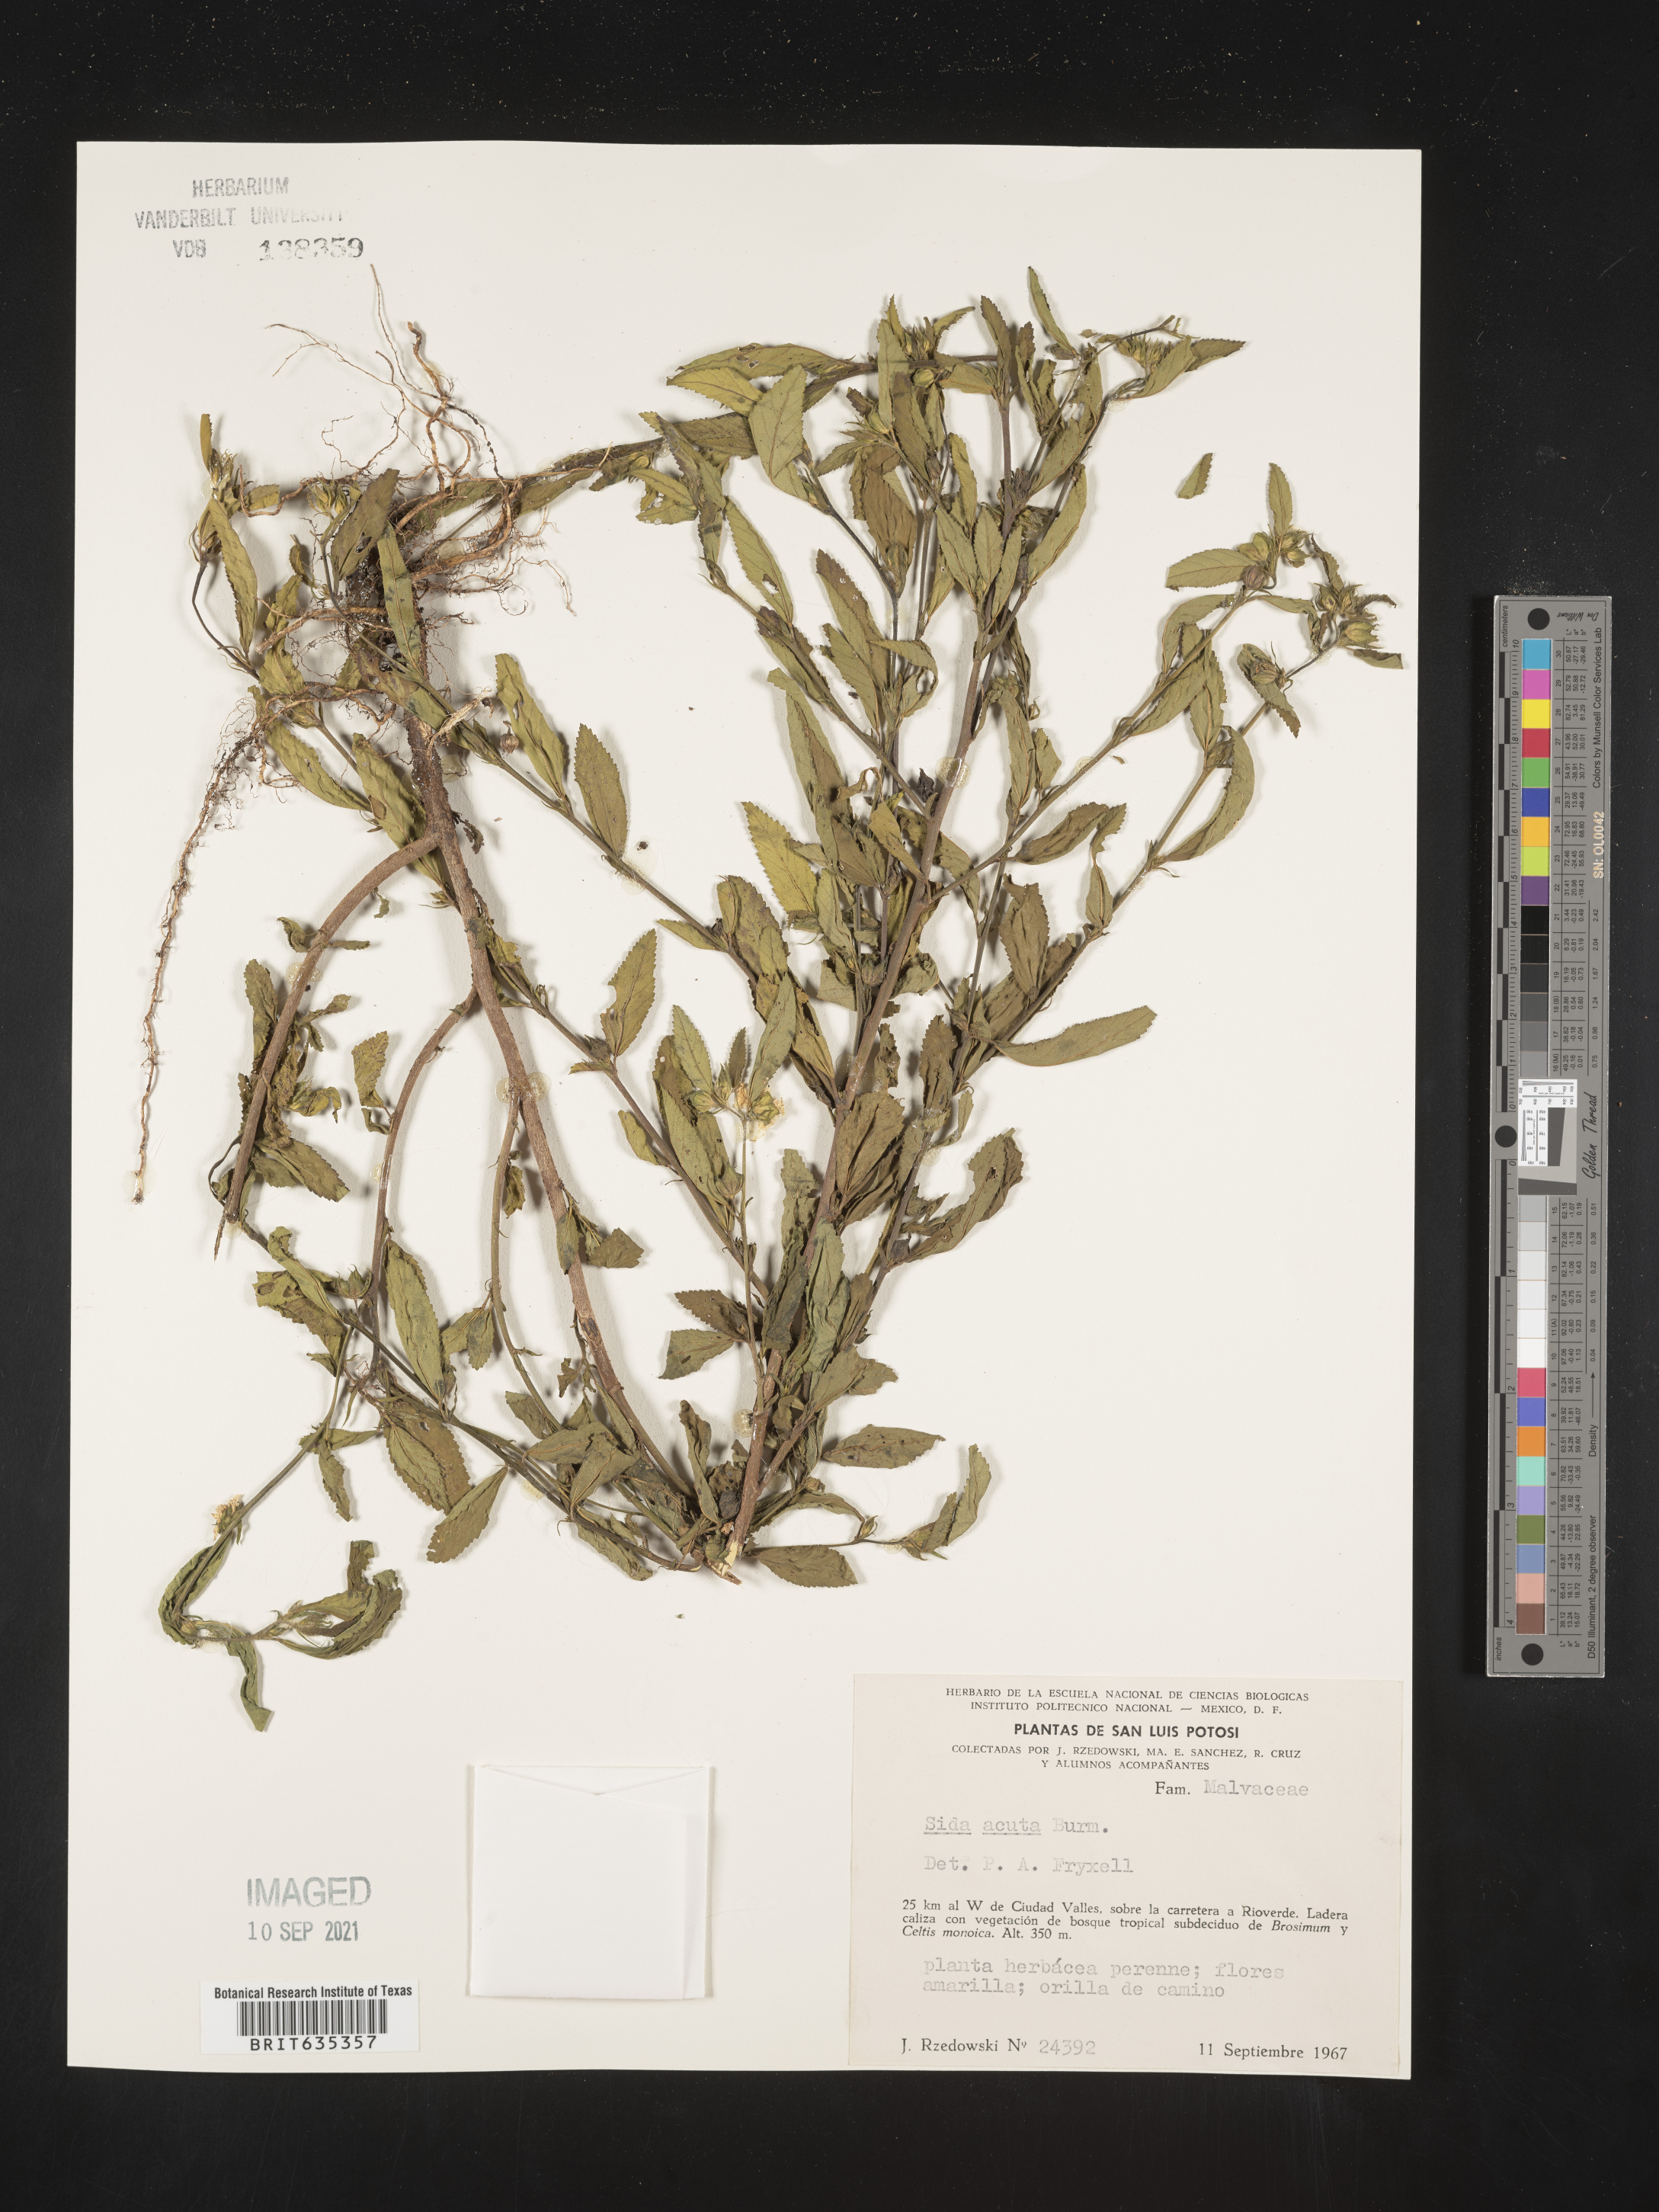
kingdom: Plantae
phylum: Tracheophyta
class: Magnoliopsida
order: Malvales
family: Malvaceae
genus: Sida
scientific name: Sida
